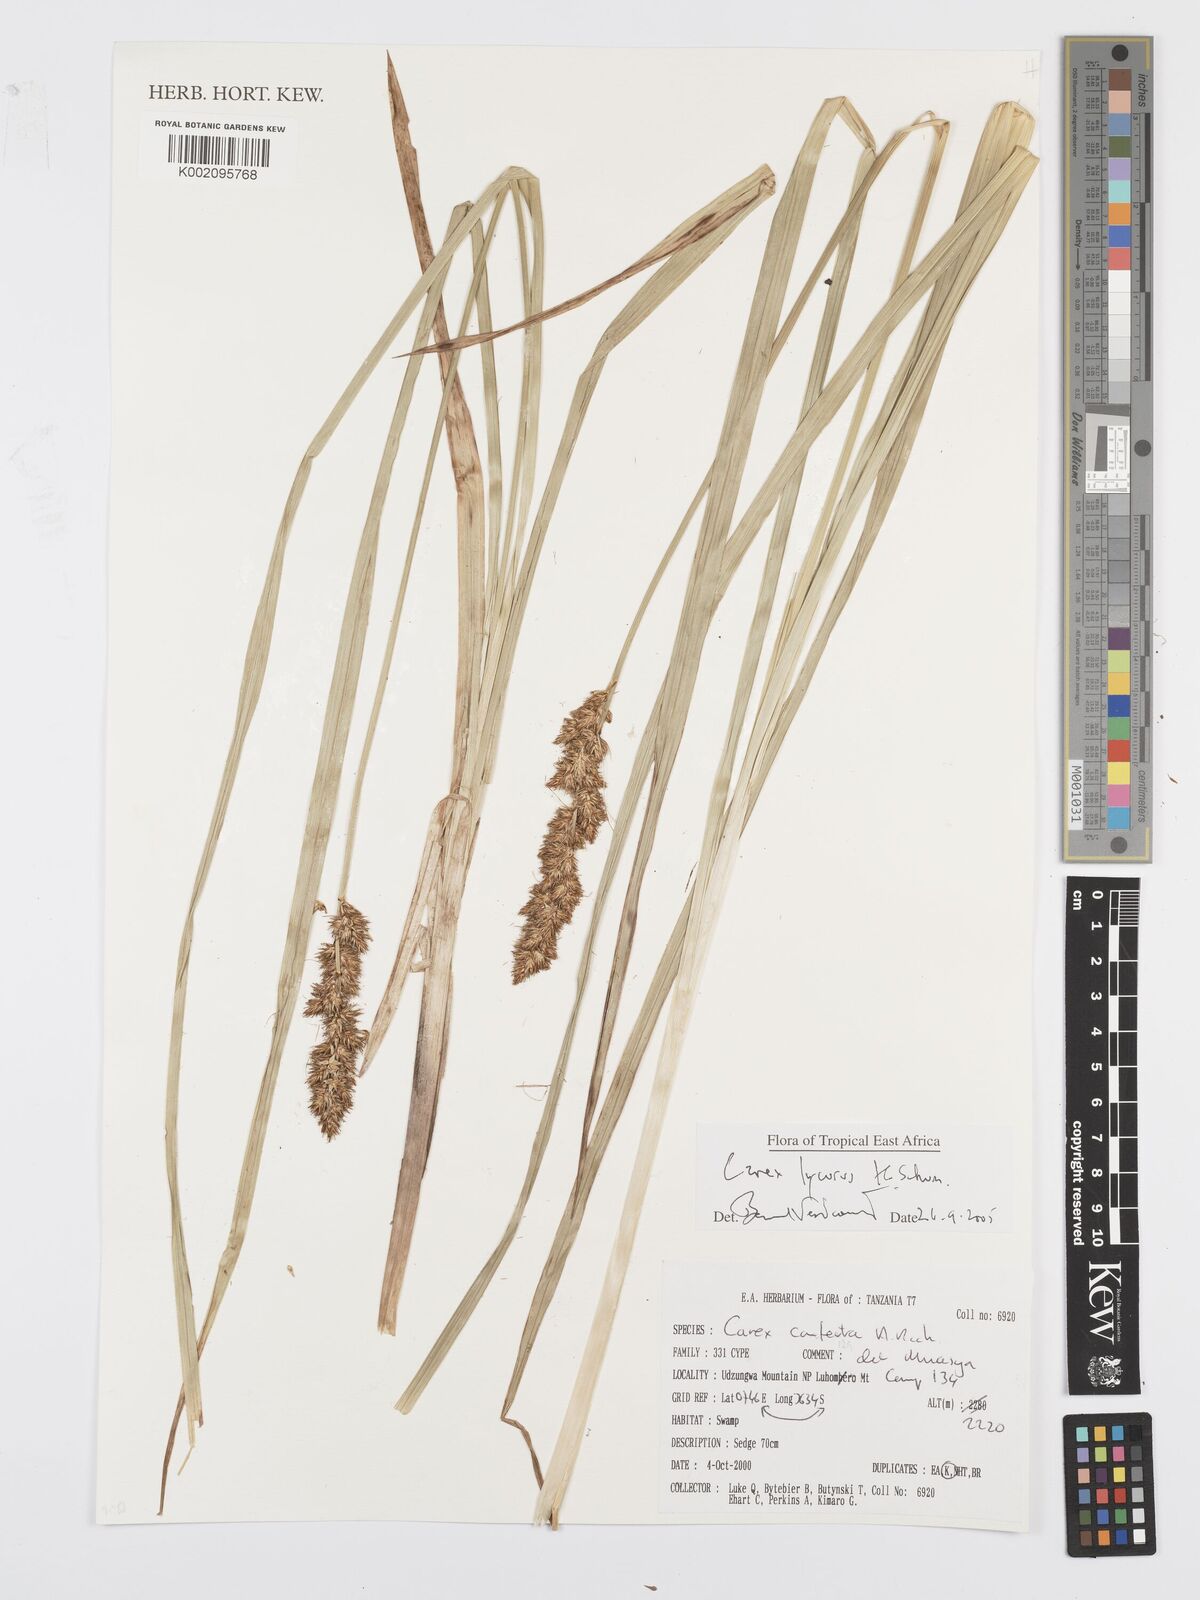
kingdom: Plantae
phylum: Tracheophyta
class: Liliopsida
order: Poales
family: Cyperaceae
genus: Carex
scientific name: Carex lycurus
